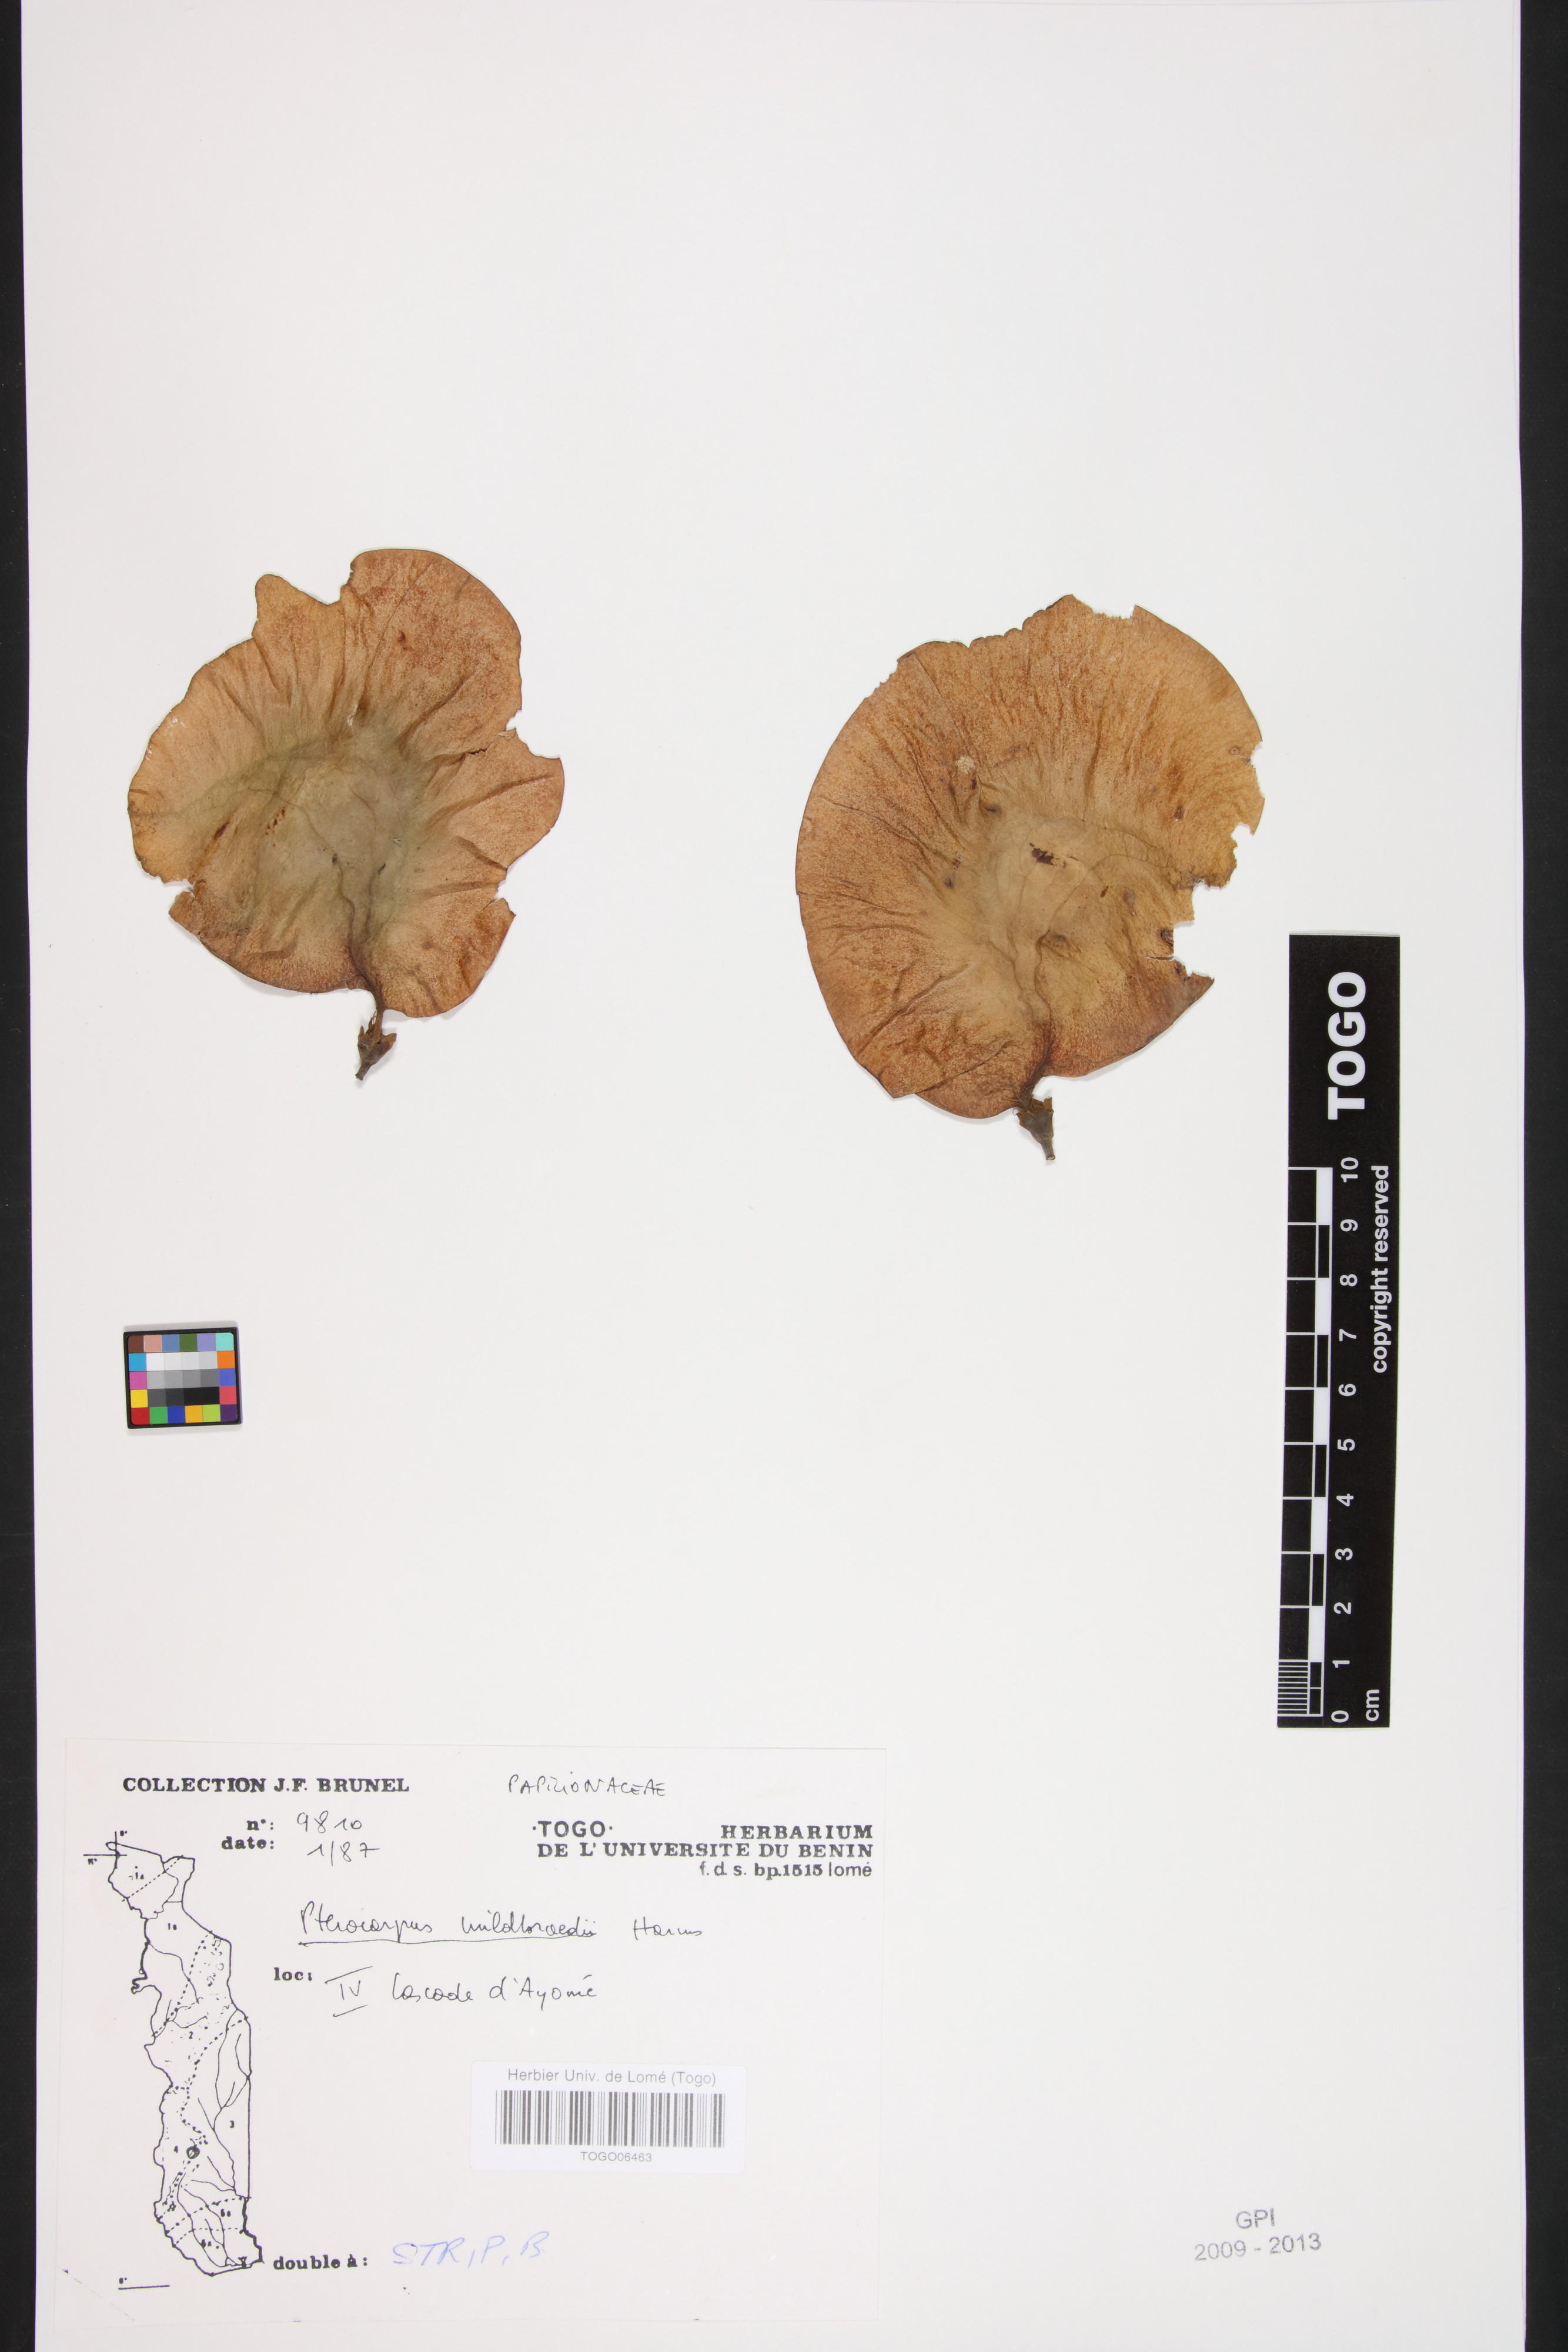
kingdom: Plantae
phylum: Tracheophyta
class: Magnoliopsida
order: Fabales
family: Fabaceae
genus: Pterocarpus
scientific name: Pterocarpus mildbraedii
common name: White padouk
